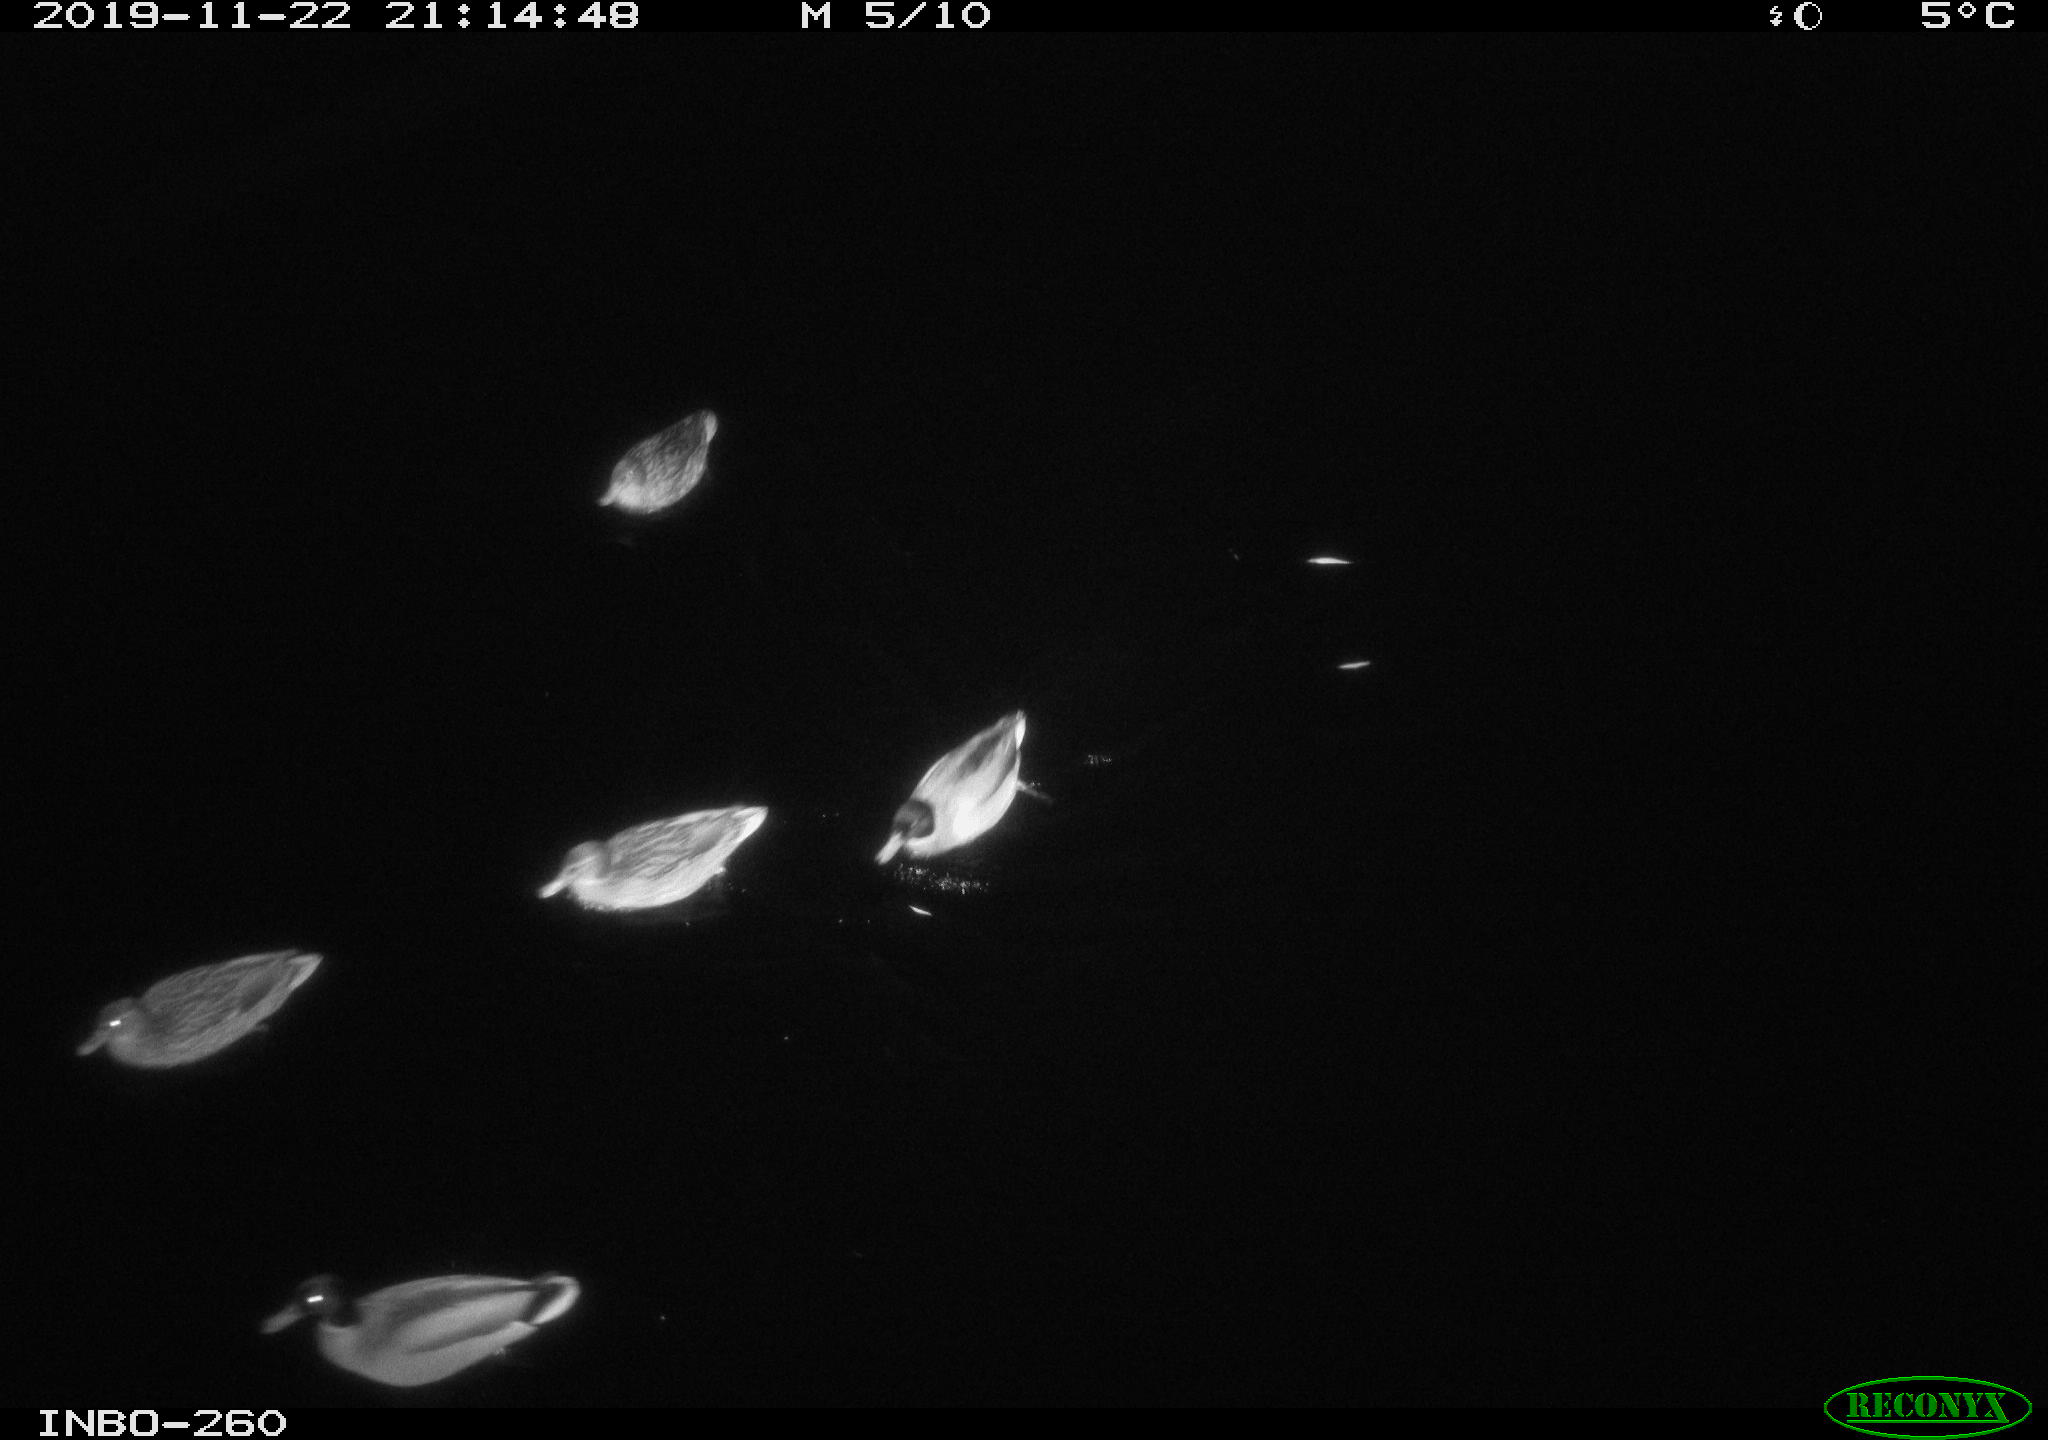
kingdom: Animalia
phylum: Chordata
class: Aves
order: Anseriformes
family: Anatidae
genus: Anas
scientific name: Anas platyrhynchos
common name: Mallard
